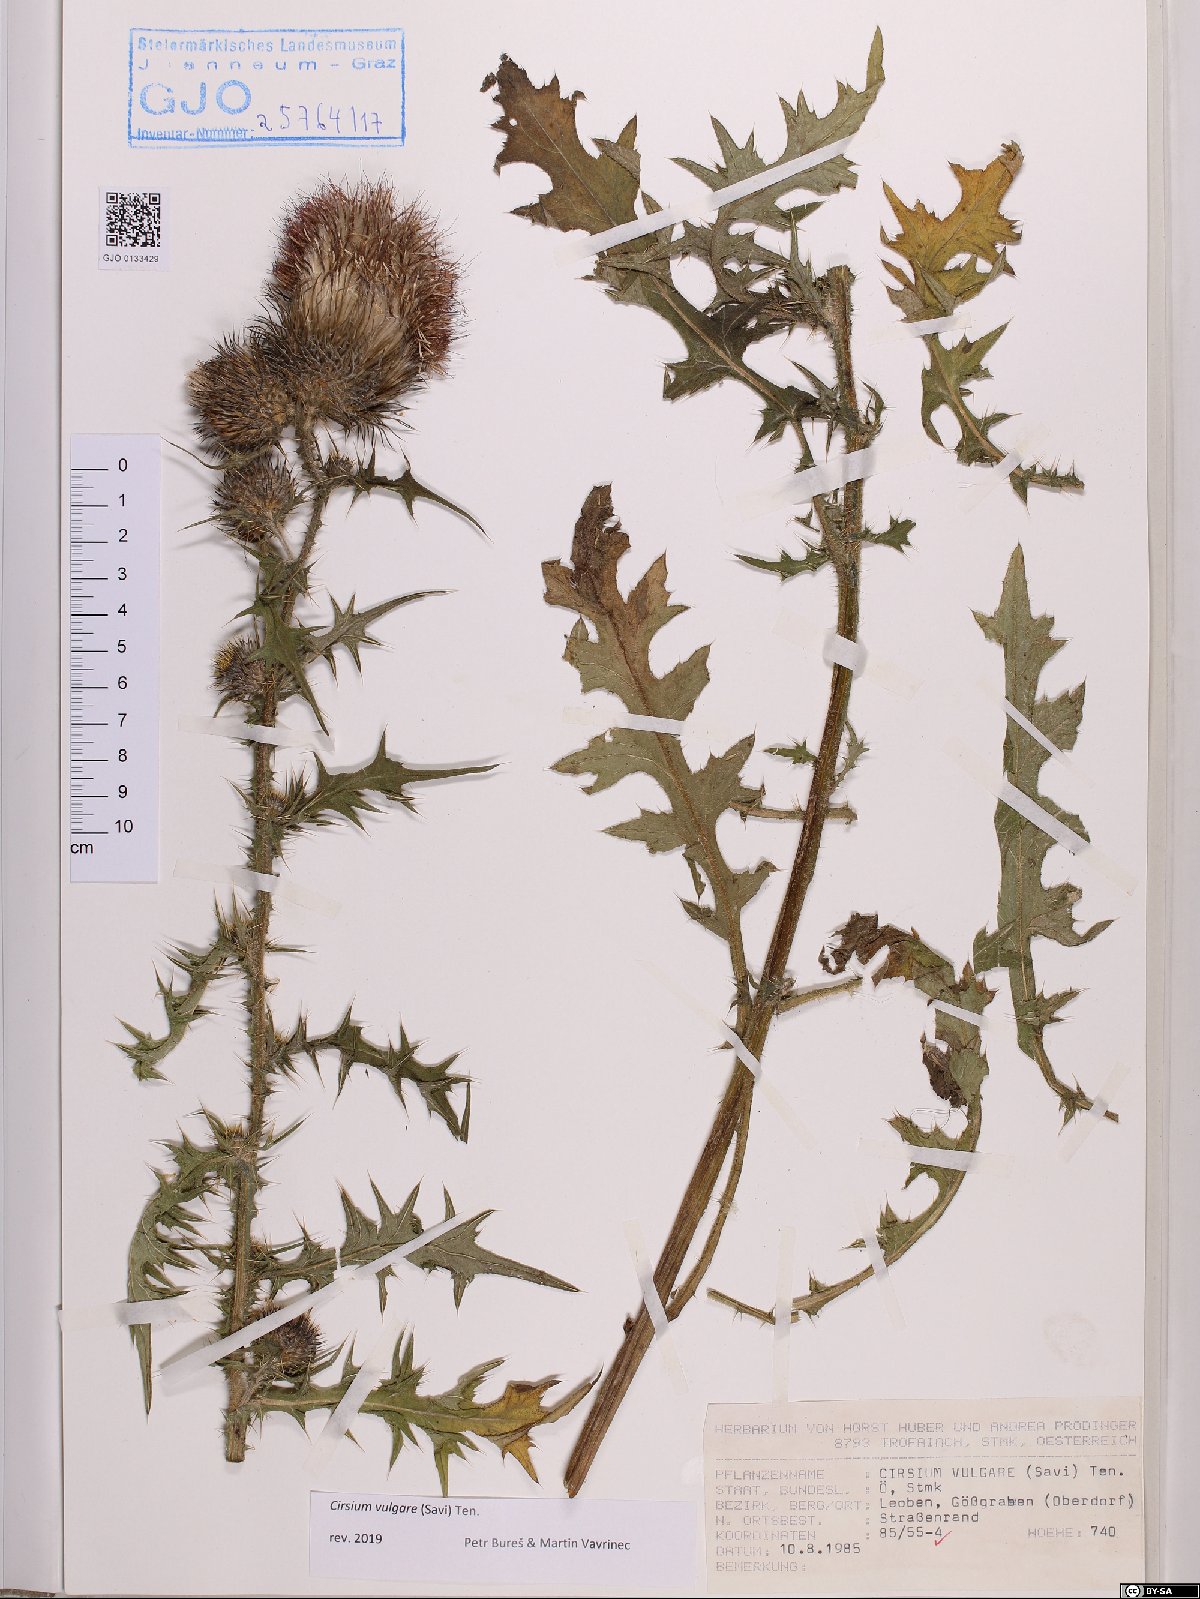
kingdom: Plantae
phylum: Tracheophyta
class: Magnoliopsida
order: Asterales
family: Asteraceae
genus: Cirsium
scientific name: Cirsium vulgare
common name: Bull thistle
